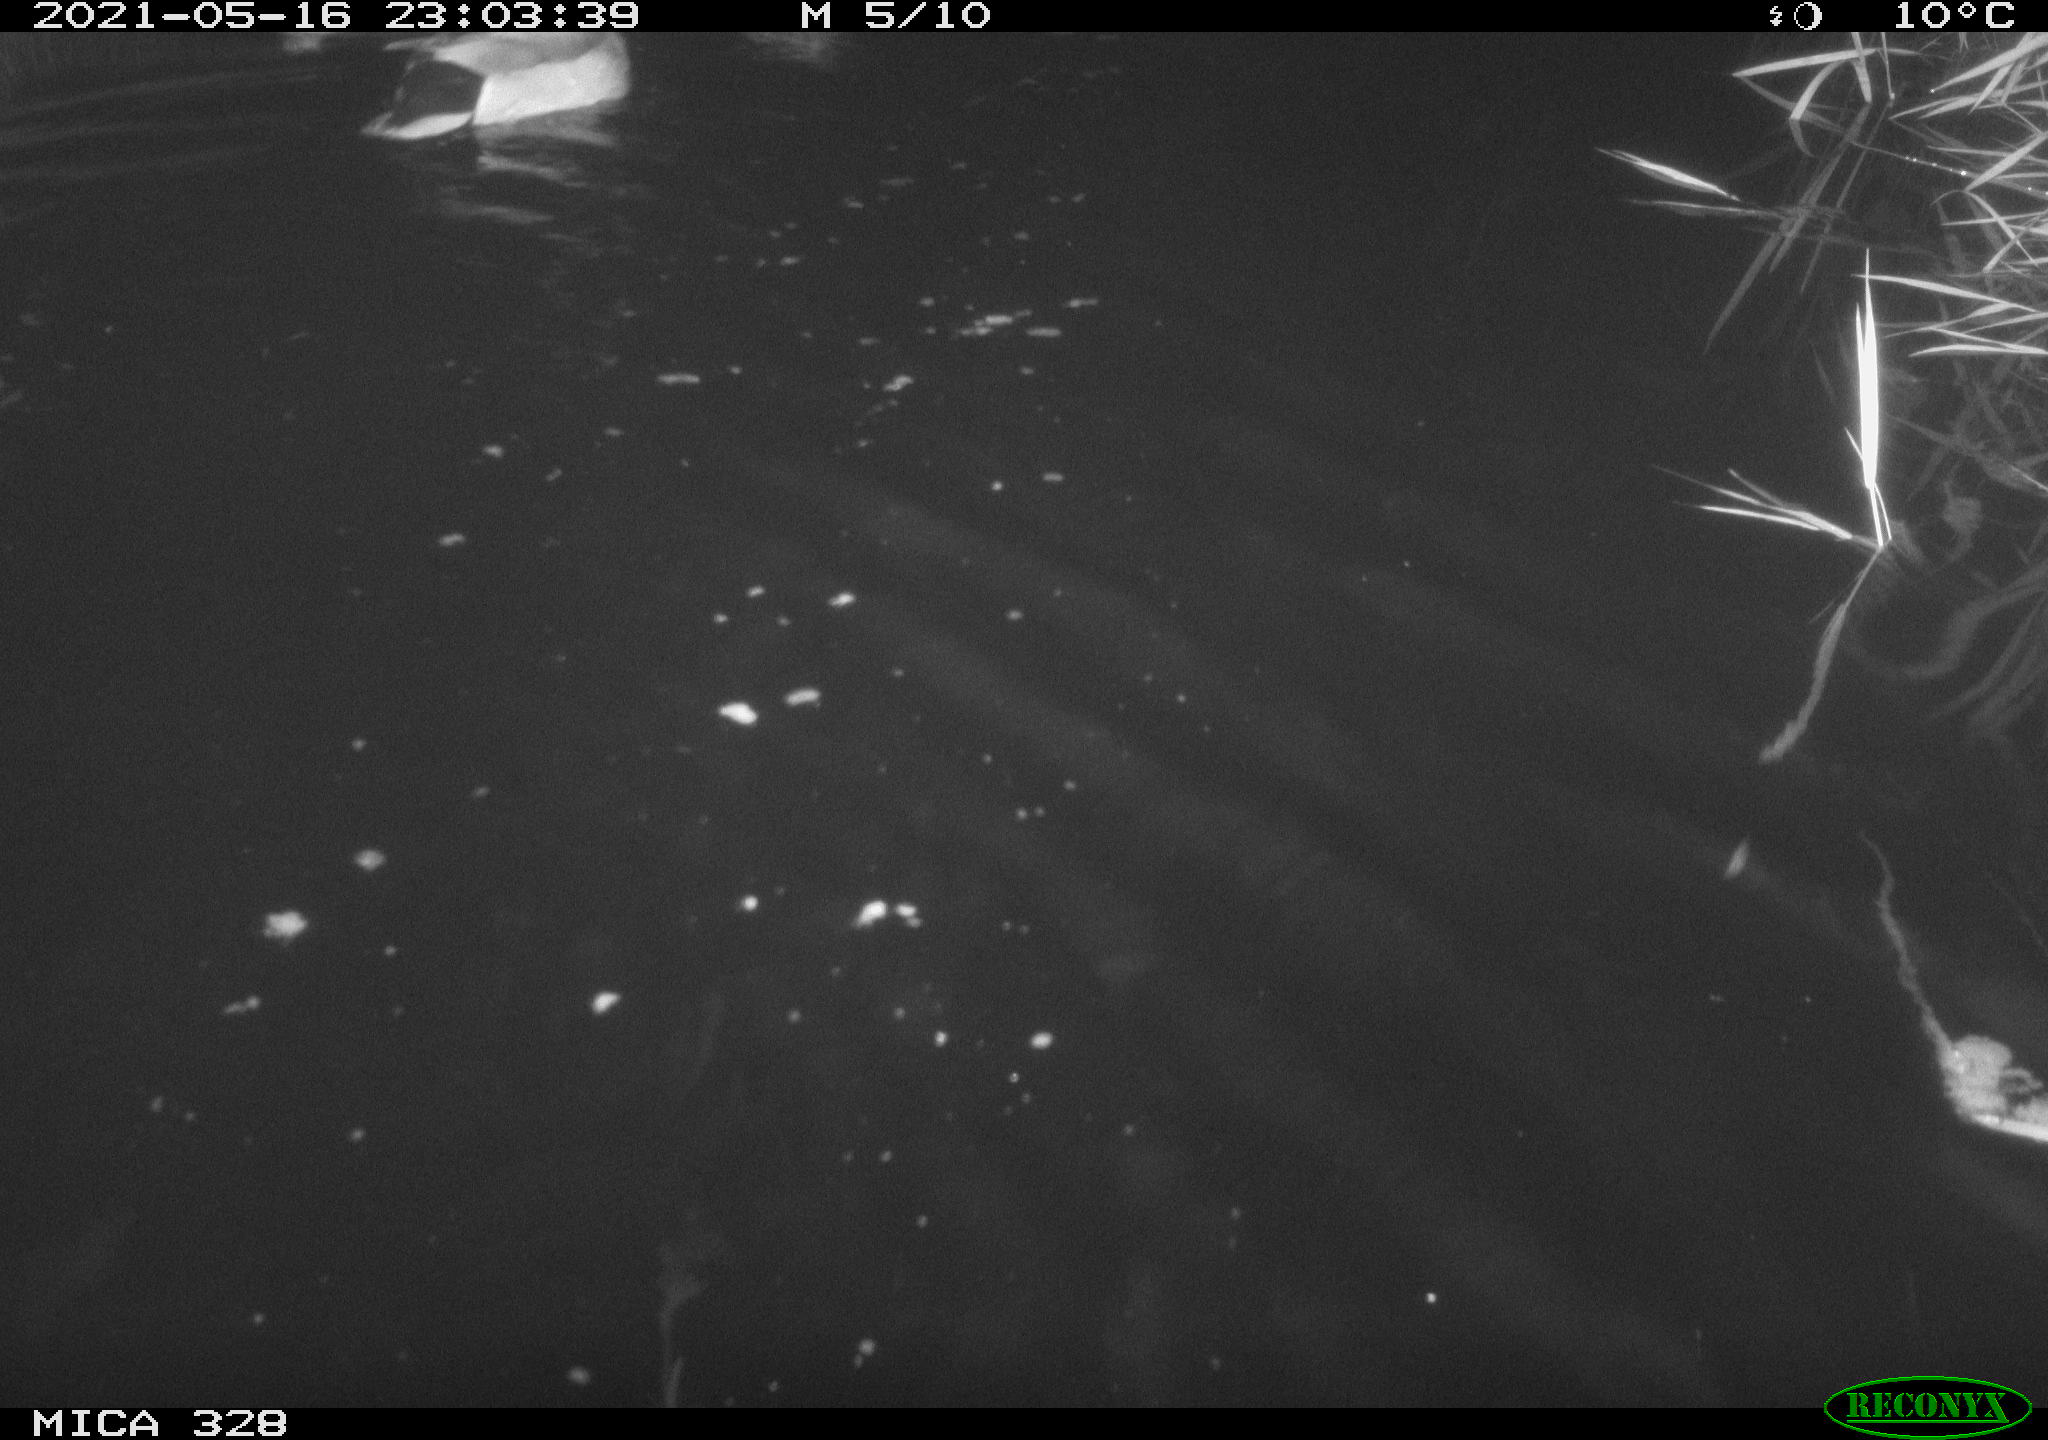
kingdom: Animalia
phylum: Chordata
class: Aves
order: Anseriformes
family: Anatidae
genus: Anas
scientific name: Anas platyrhynchos
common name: Mallard
